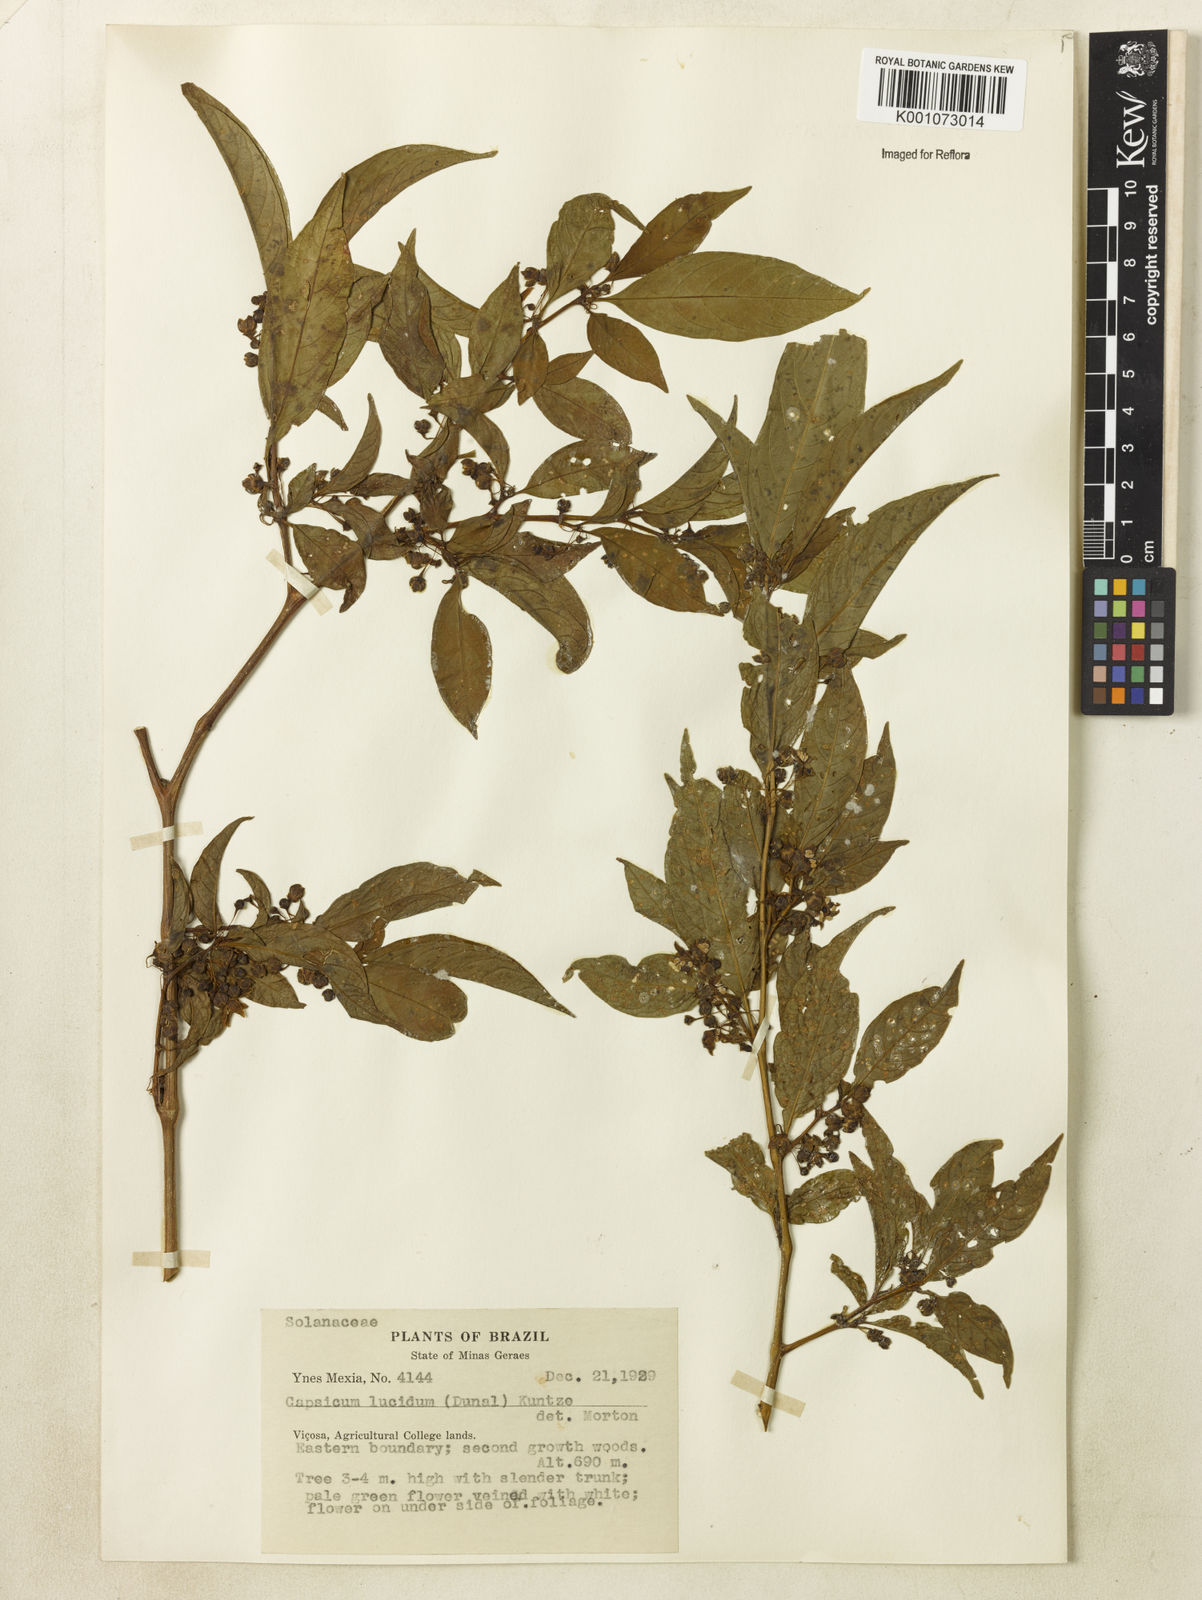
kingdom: Plantae
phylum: Tracheophyta
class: Magnoliopsida
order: Solanales
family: Solanaceae
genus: Athenaea
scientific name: Athenaea fasciculata
